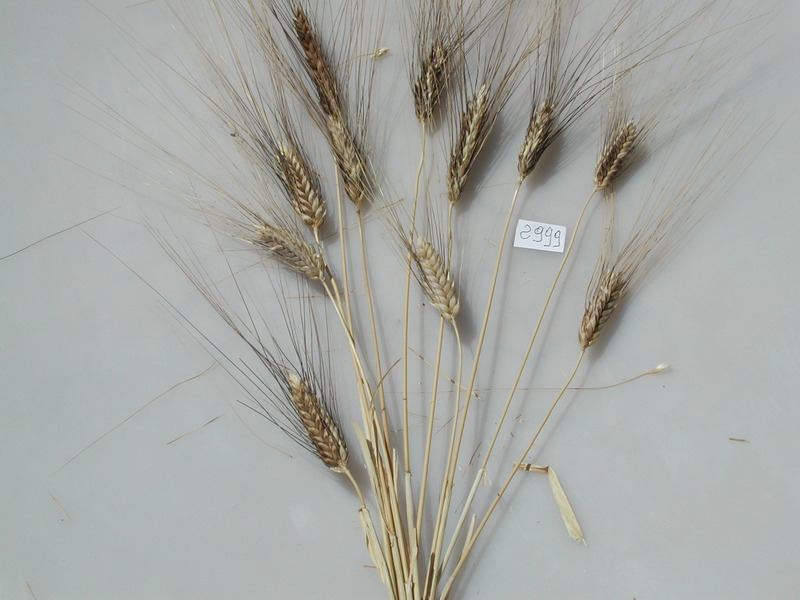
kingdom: Plantae
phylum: Tracheophyta
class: Liliopsida
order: Poales
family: Poaceae
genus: Triticum
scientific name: Triticum turgidum
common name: Wheat
